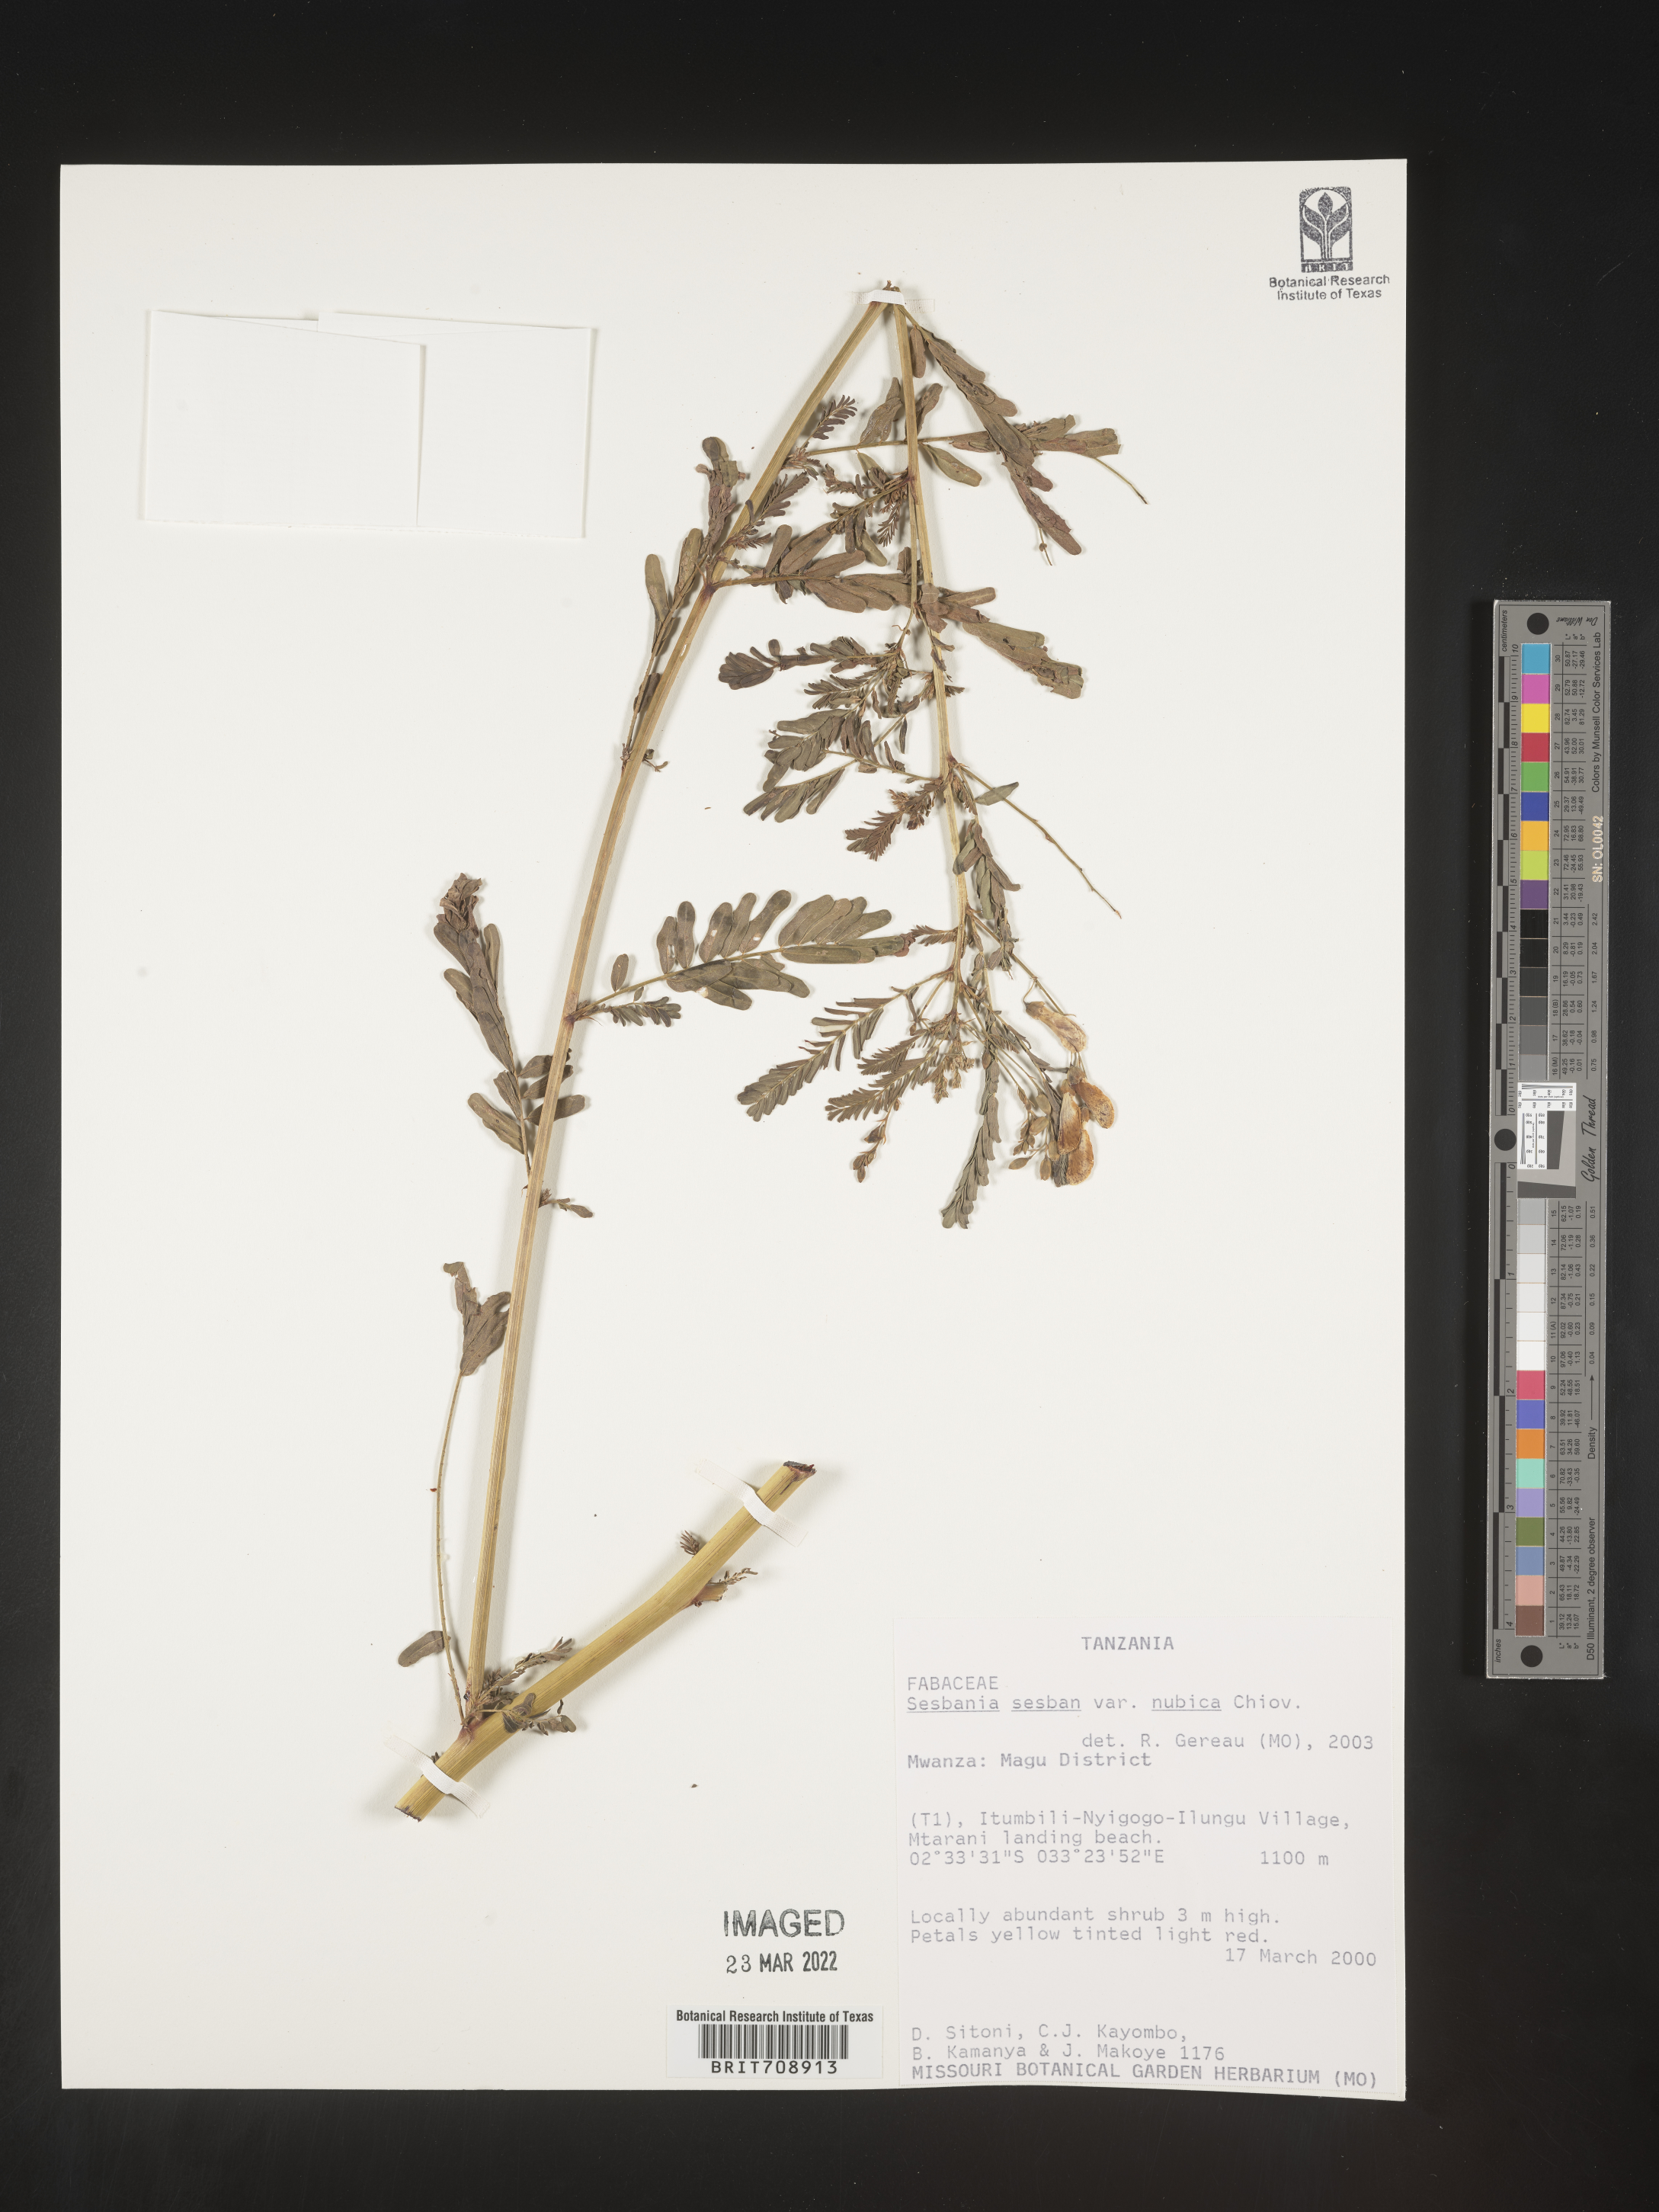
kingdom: Plantae
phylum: Tracheophyta
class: Magnoliopsida
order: Fabales
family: Fabaceae
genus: Sesbania
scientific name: Sesbania
